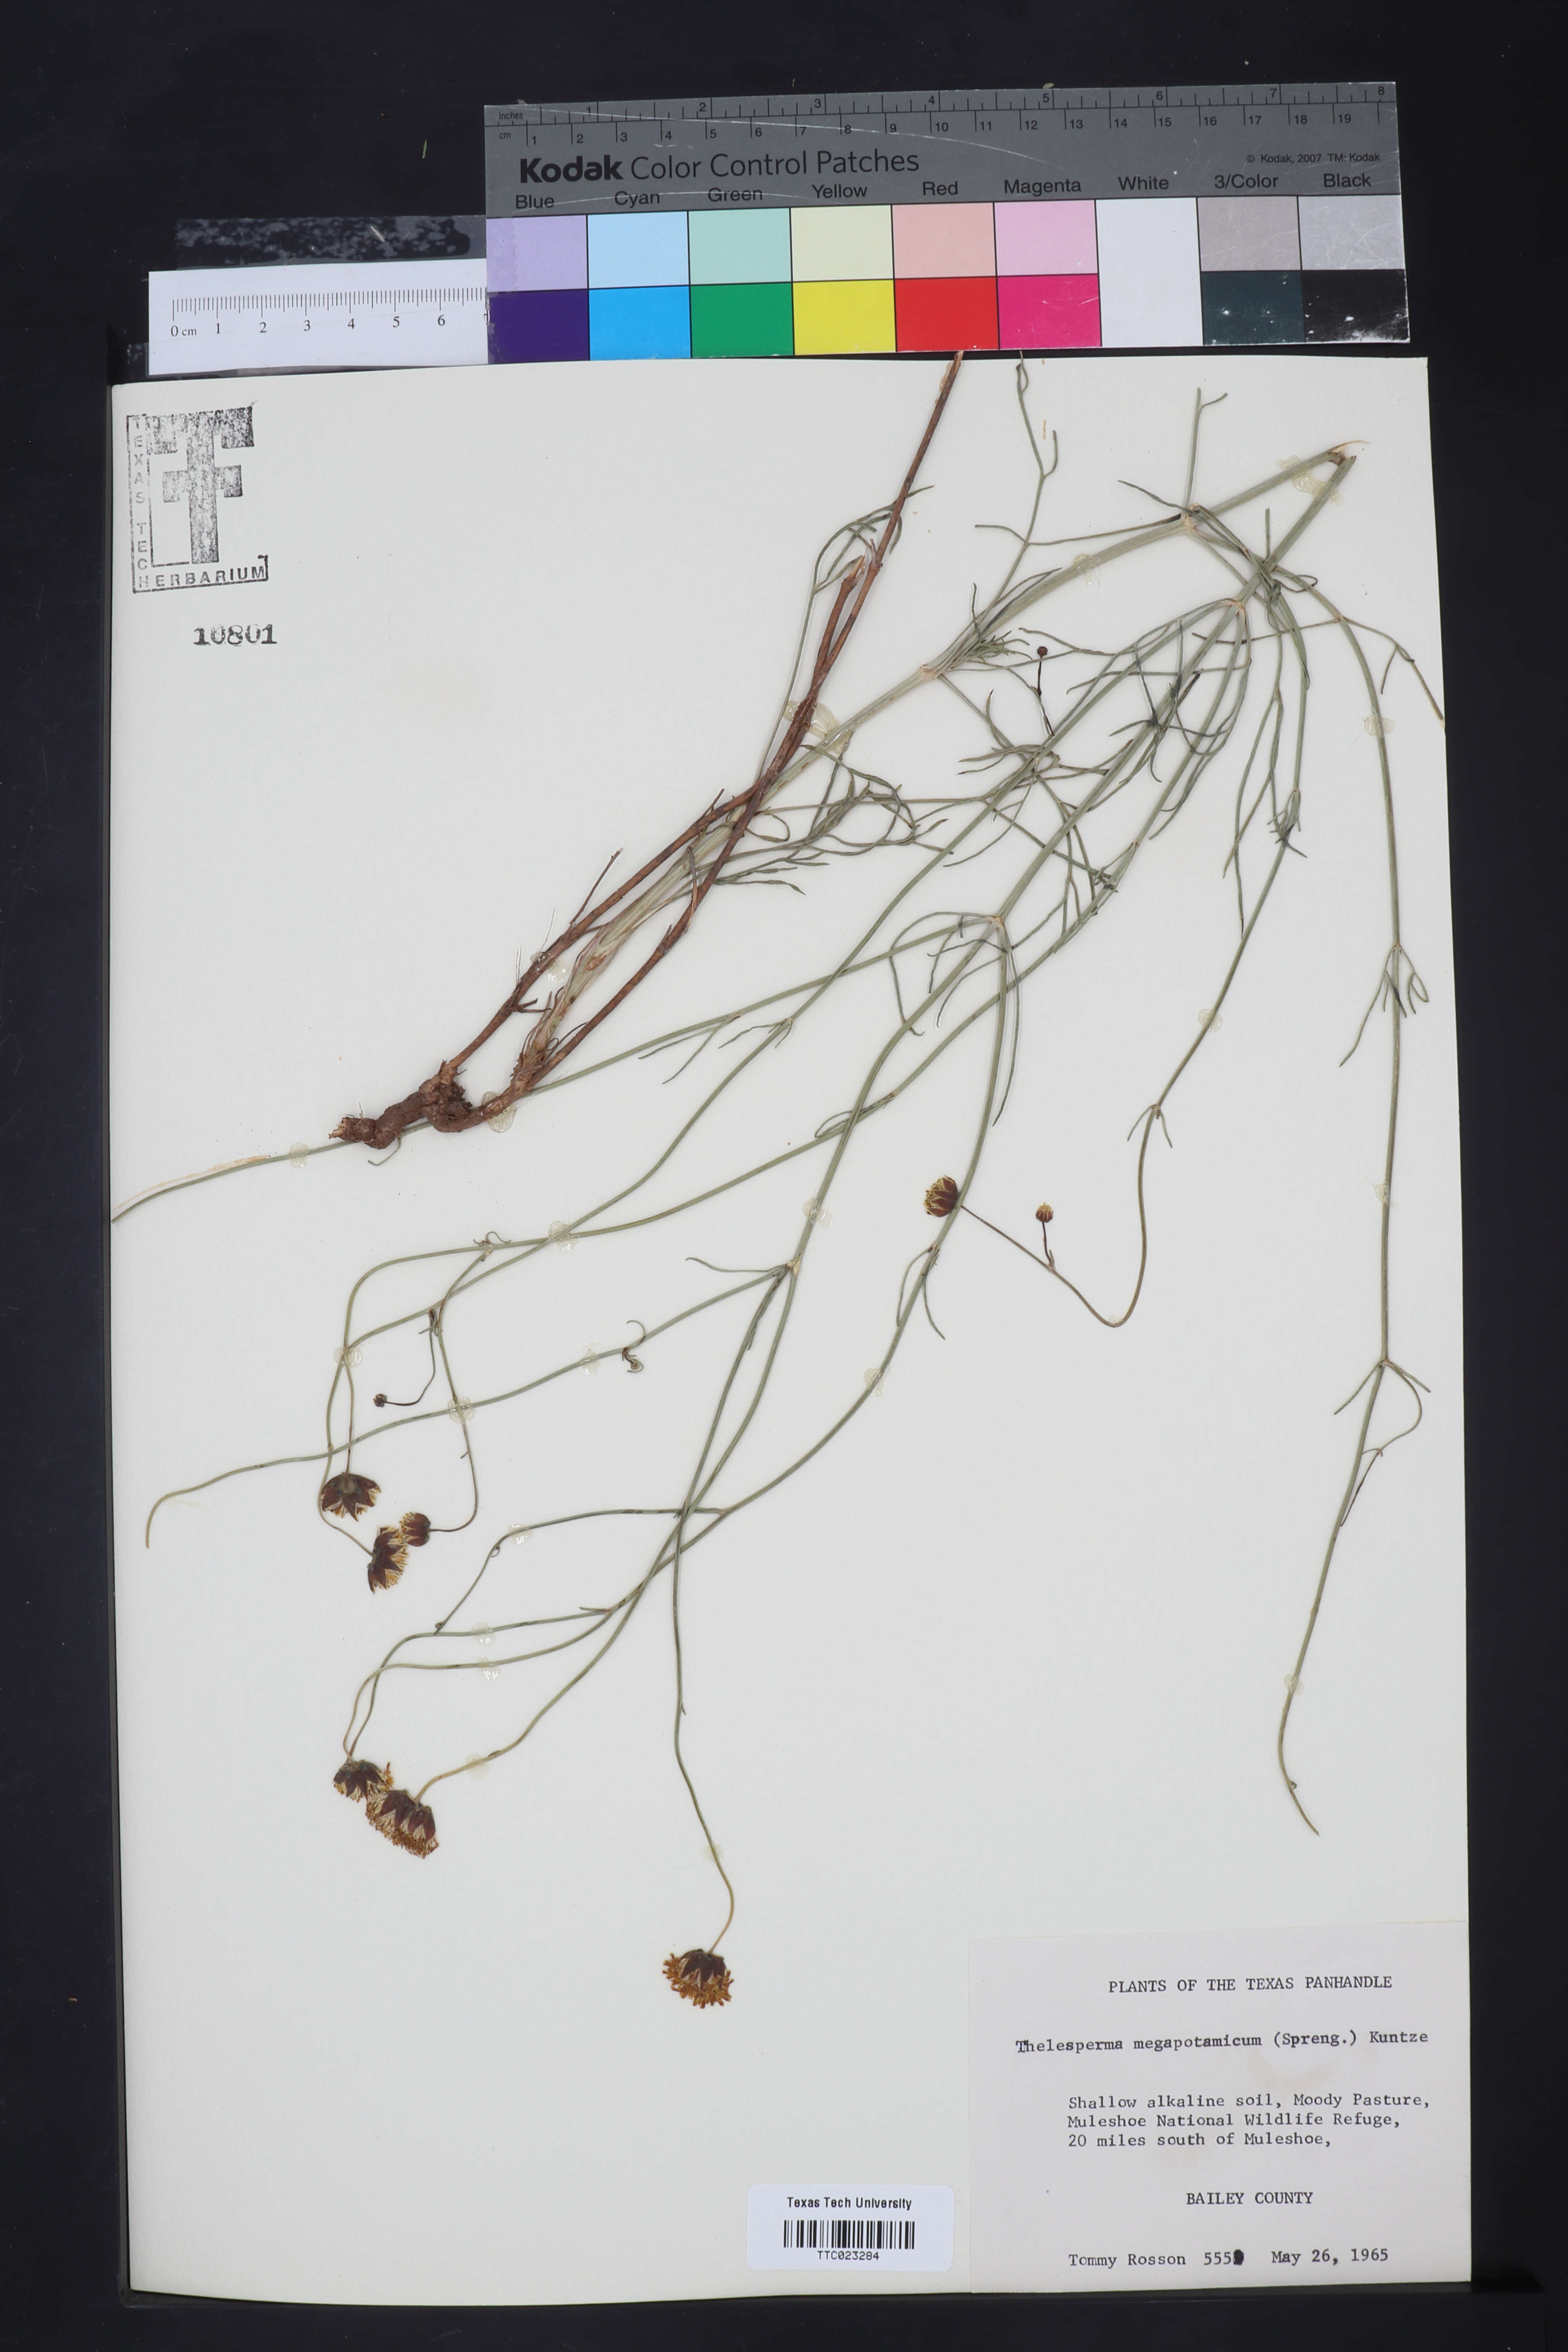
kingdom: Plantae
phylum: Tracheophyta
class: Magnoliopsida
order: Asterales
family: Asteraceae
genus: Thelesperma
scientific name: Thelesperma megapotamicum
